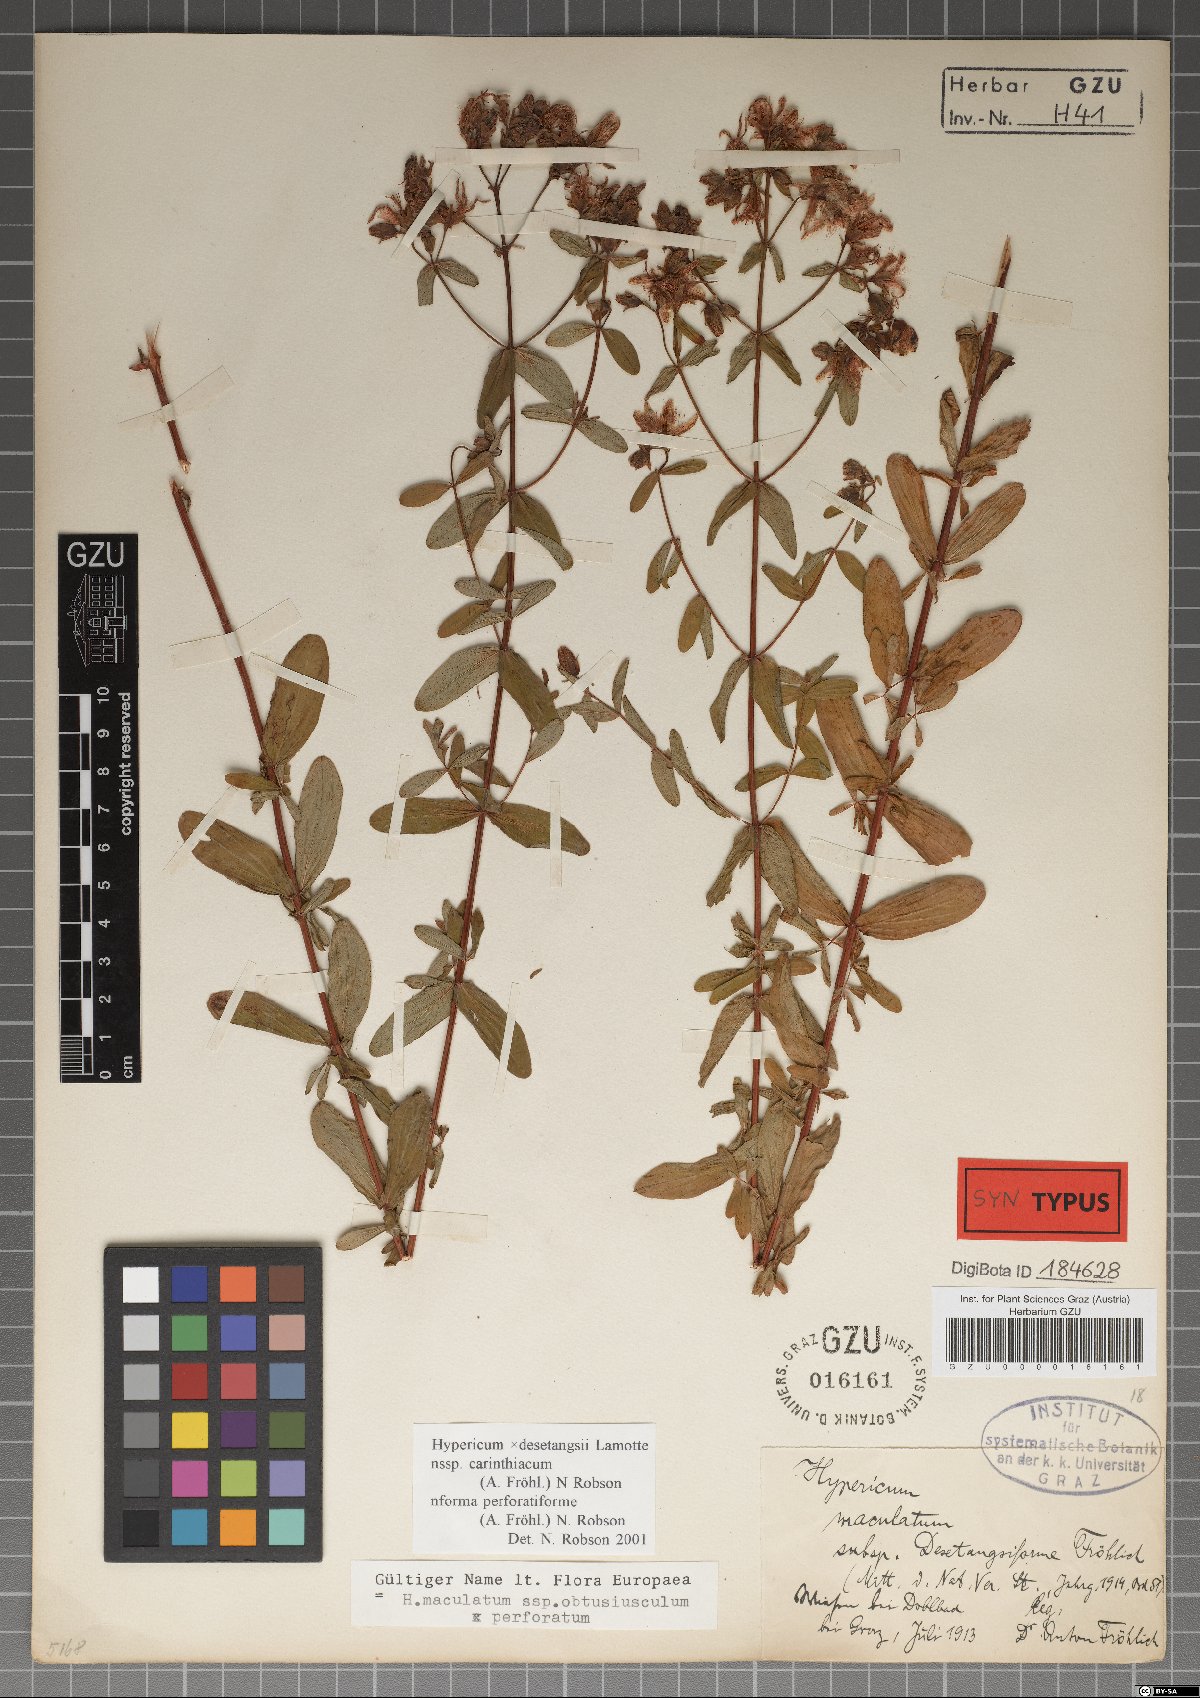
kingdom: Plantae
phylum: Tracheophyta
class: Magnoliopsida
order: Malpighiales
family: Hypericaceae
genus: Hypericum
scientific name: Hypericum carinthiacum
